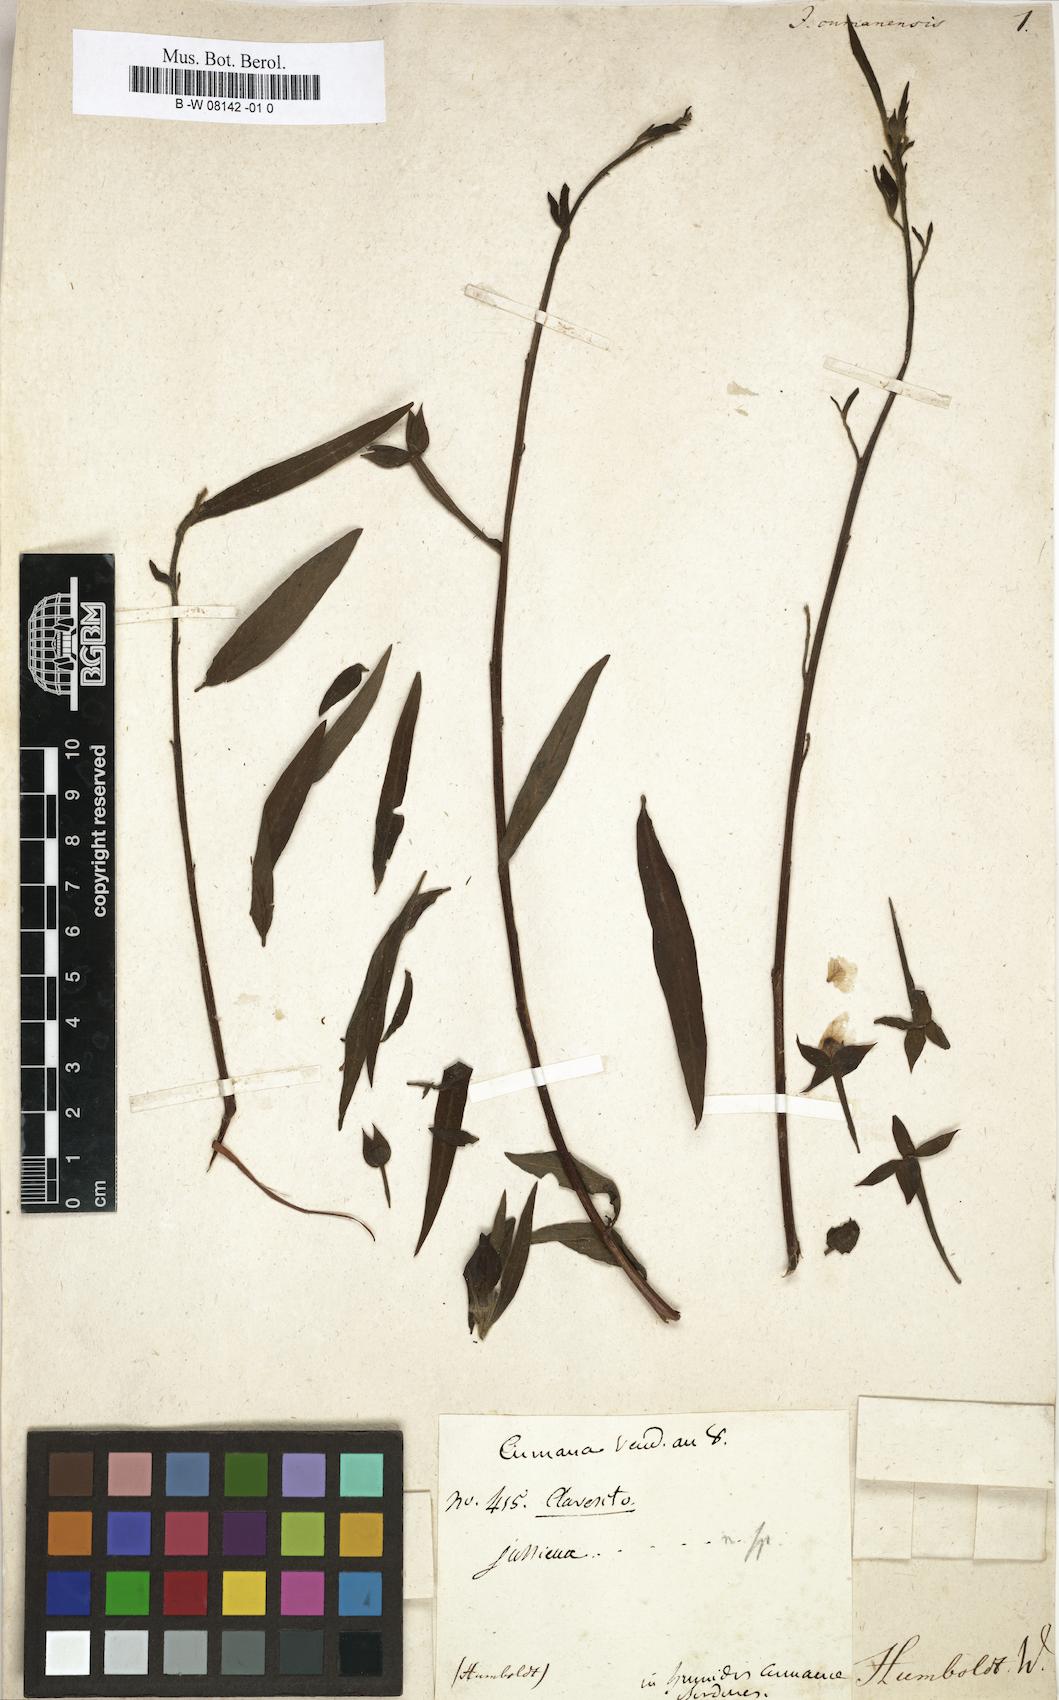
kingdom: Plantae
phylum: Tracheophyta
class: Magnoliopsida
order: Myrtales
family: Onagraceae
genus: Ludwigia
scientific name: Ludwigia
